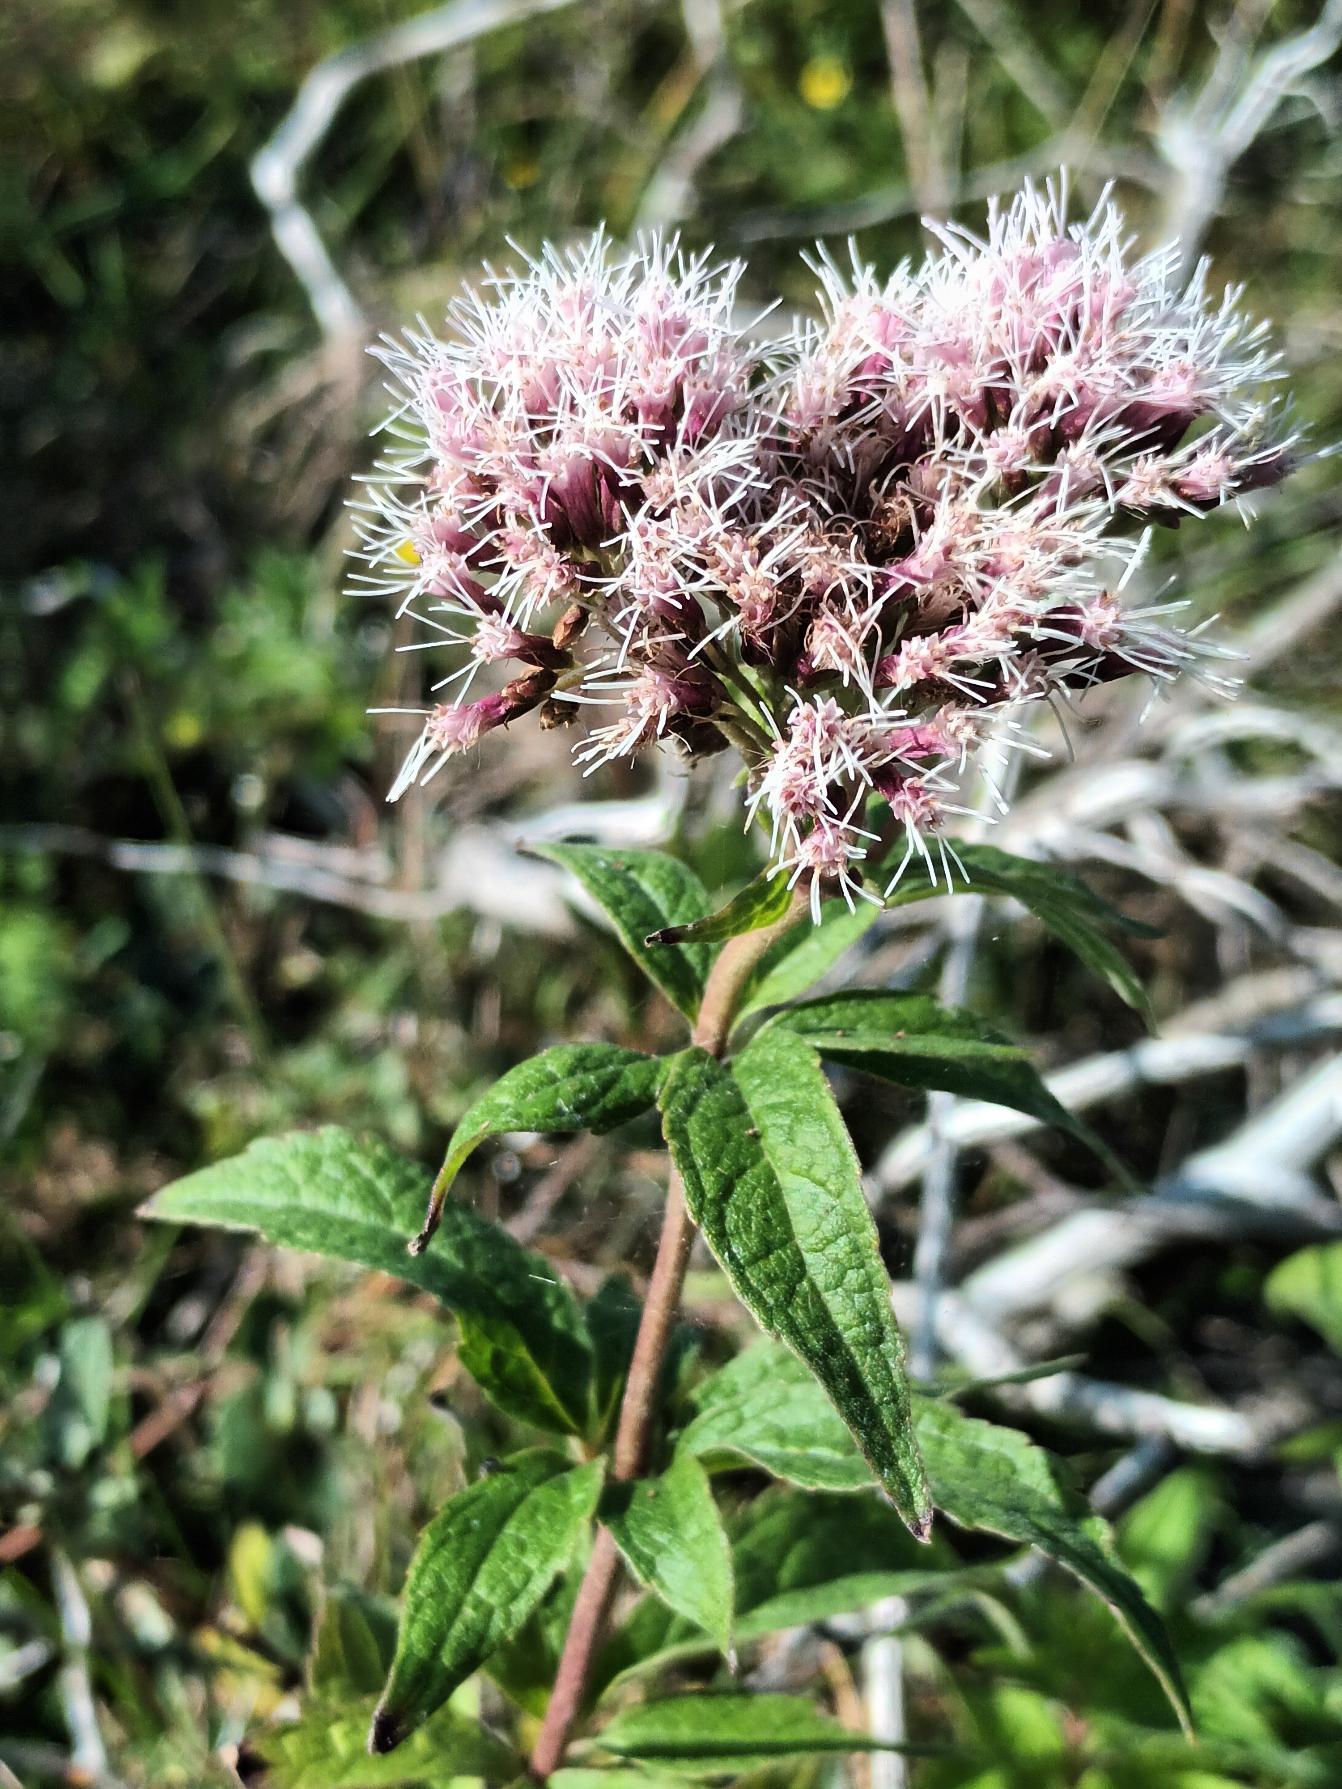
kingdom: Plantae
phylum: Tracheophyta
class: Magnoliopsida
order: Asterales
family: Asteraceae
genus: Eupatorium
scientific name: Eupatorium cannabinum
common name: Hjortetrøst
